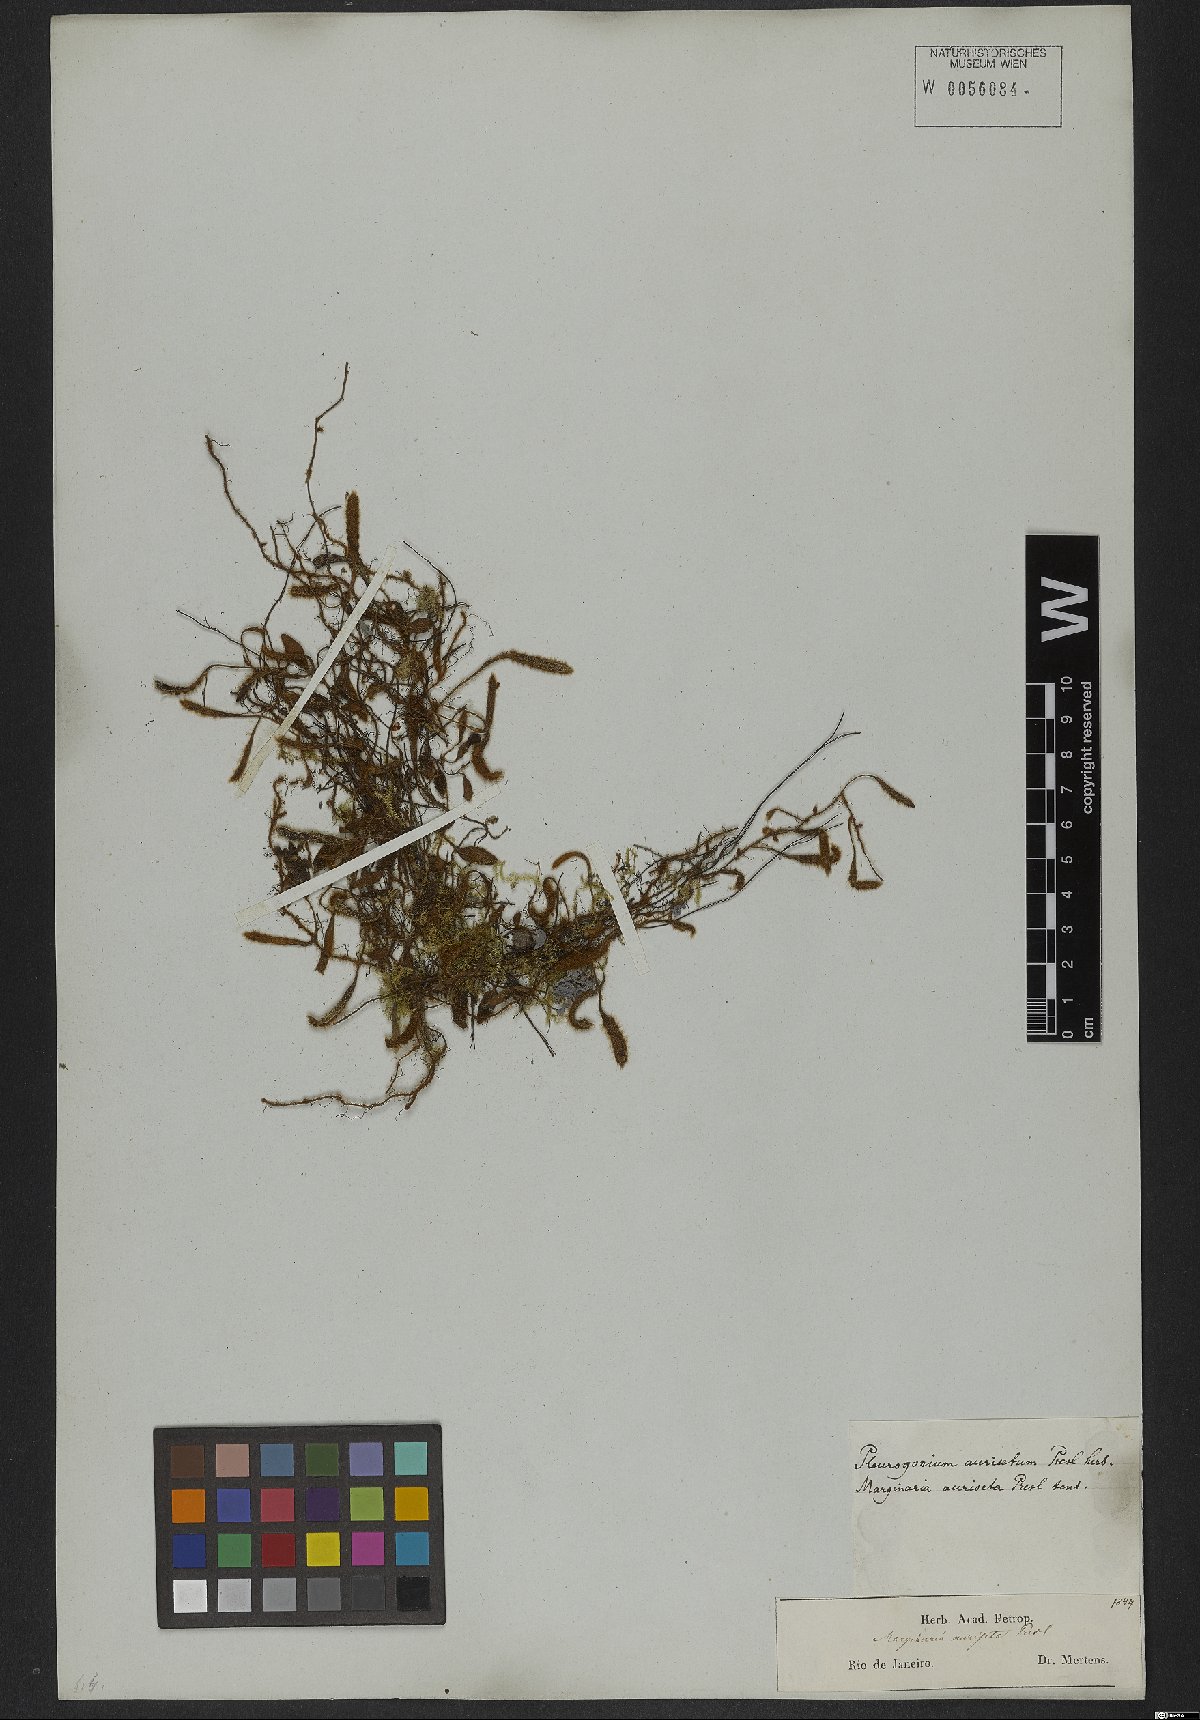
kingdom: Plantae
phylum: Tracheophyta
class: Polypodiopsida
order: Polypodiales
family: Polypodiaceae
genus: Microgramma
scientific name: Microgramma tecta
